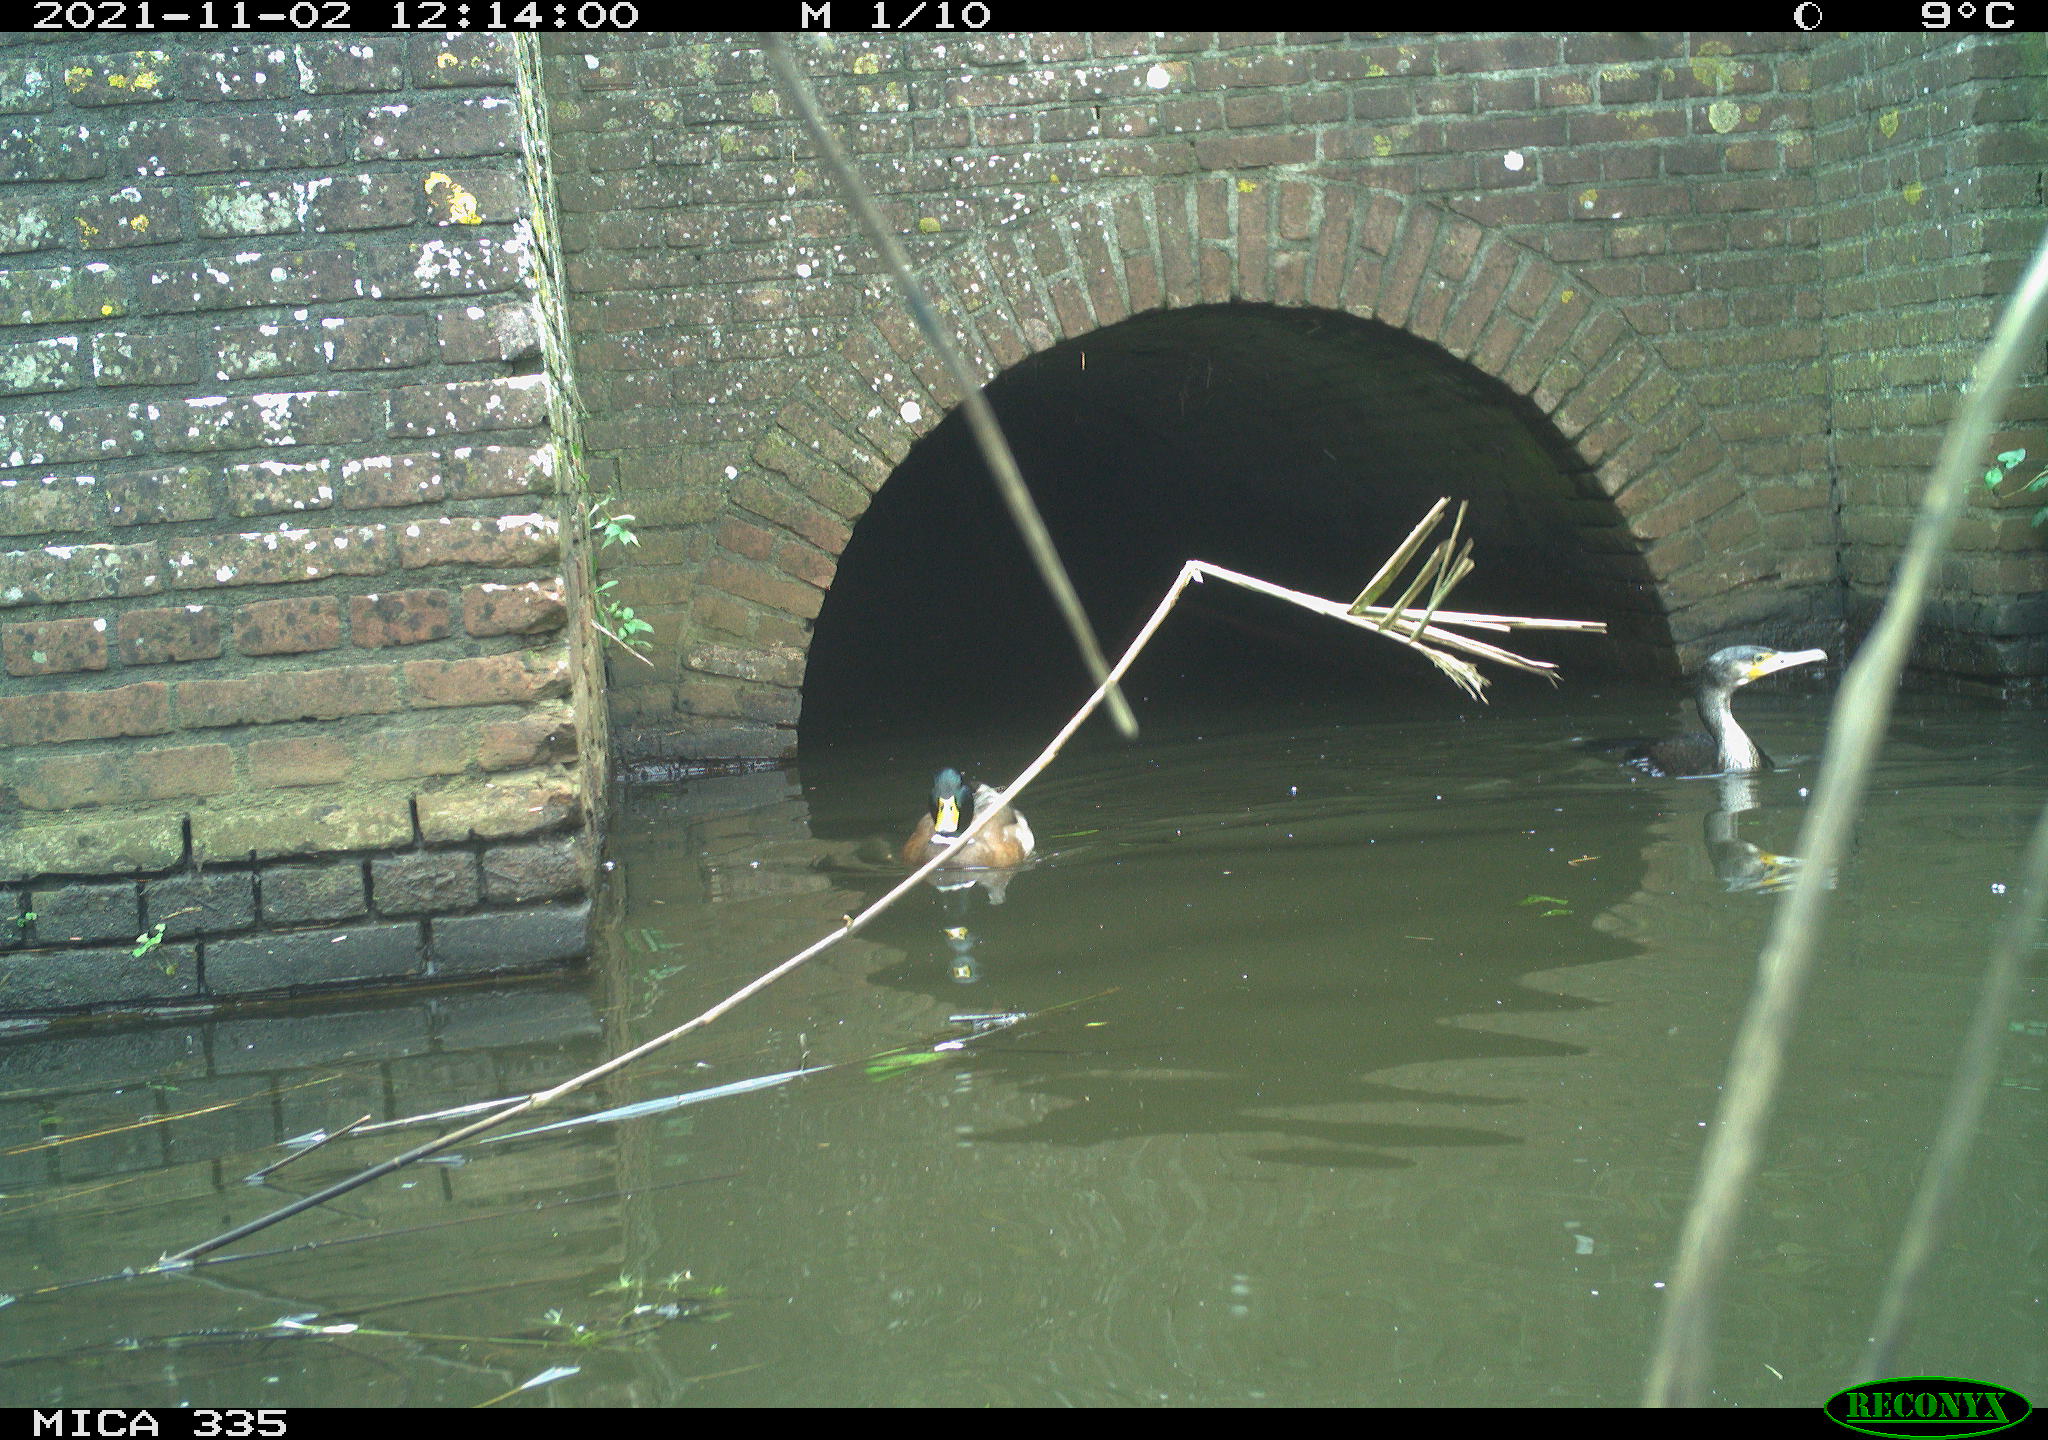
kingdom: Animalia
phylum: Chordata
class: Aves
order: Anseriformes
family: Anatidae
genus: Anas
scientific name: Anas platyrhynchos
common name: Mallard
